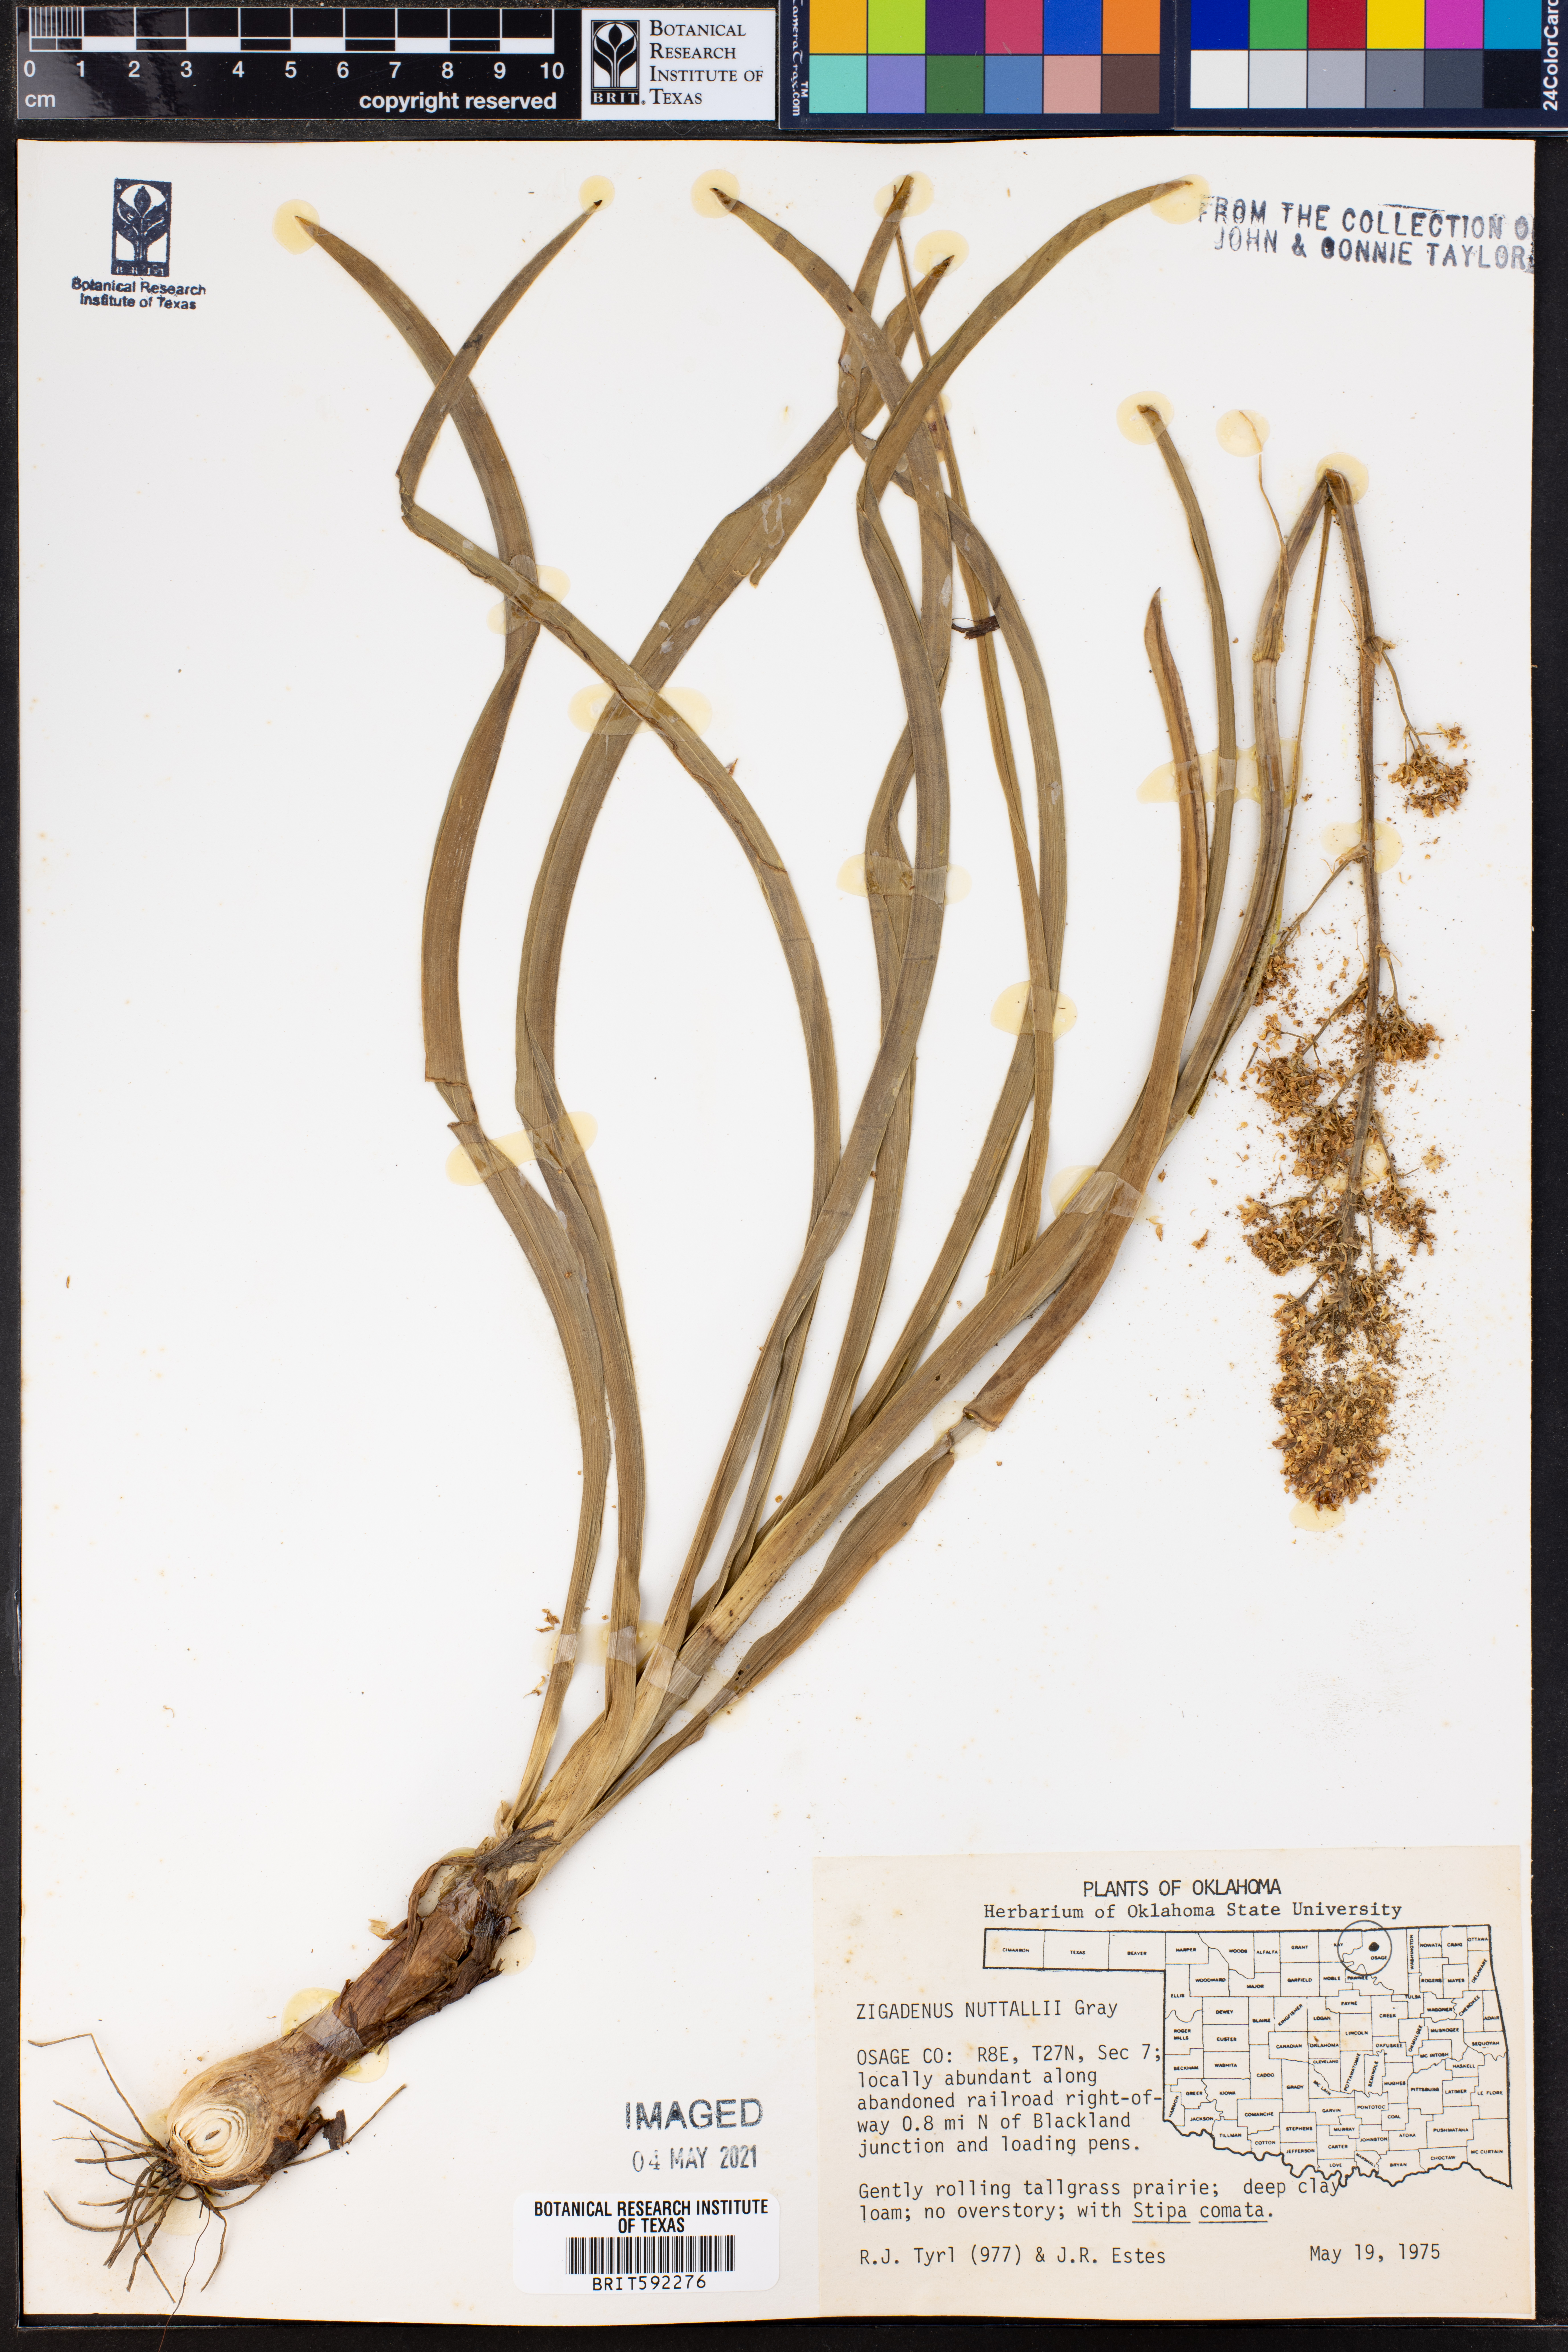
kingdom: Plantae
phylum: Tracheophyta
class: Liliopsida
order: Liliales
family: Melanthiaceae
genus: Toxicoscordion
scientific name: Toxicoscordion nuttallii
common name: Poison sego
